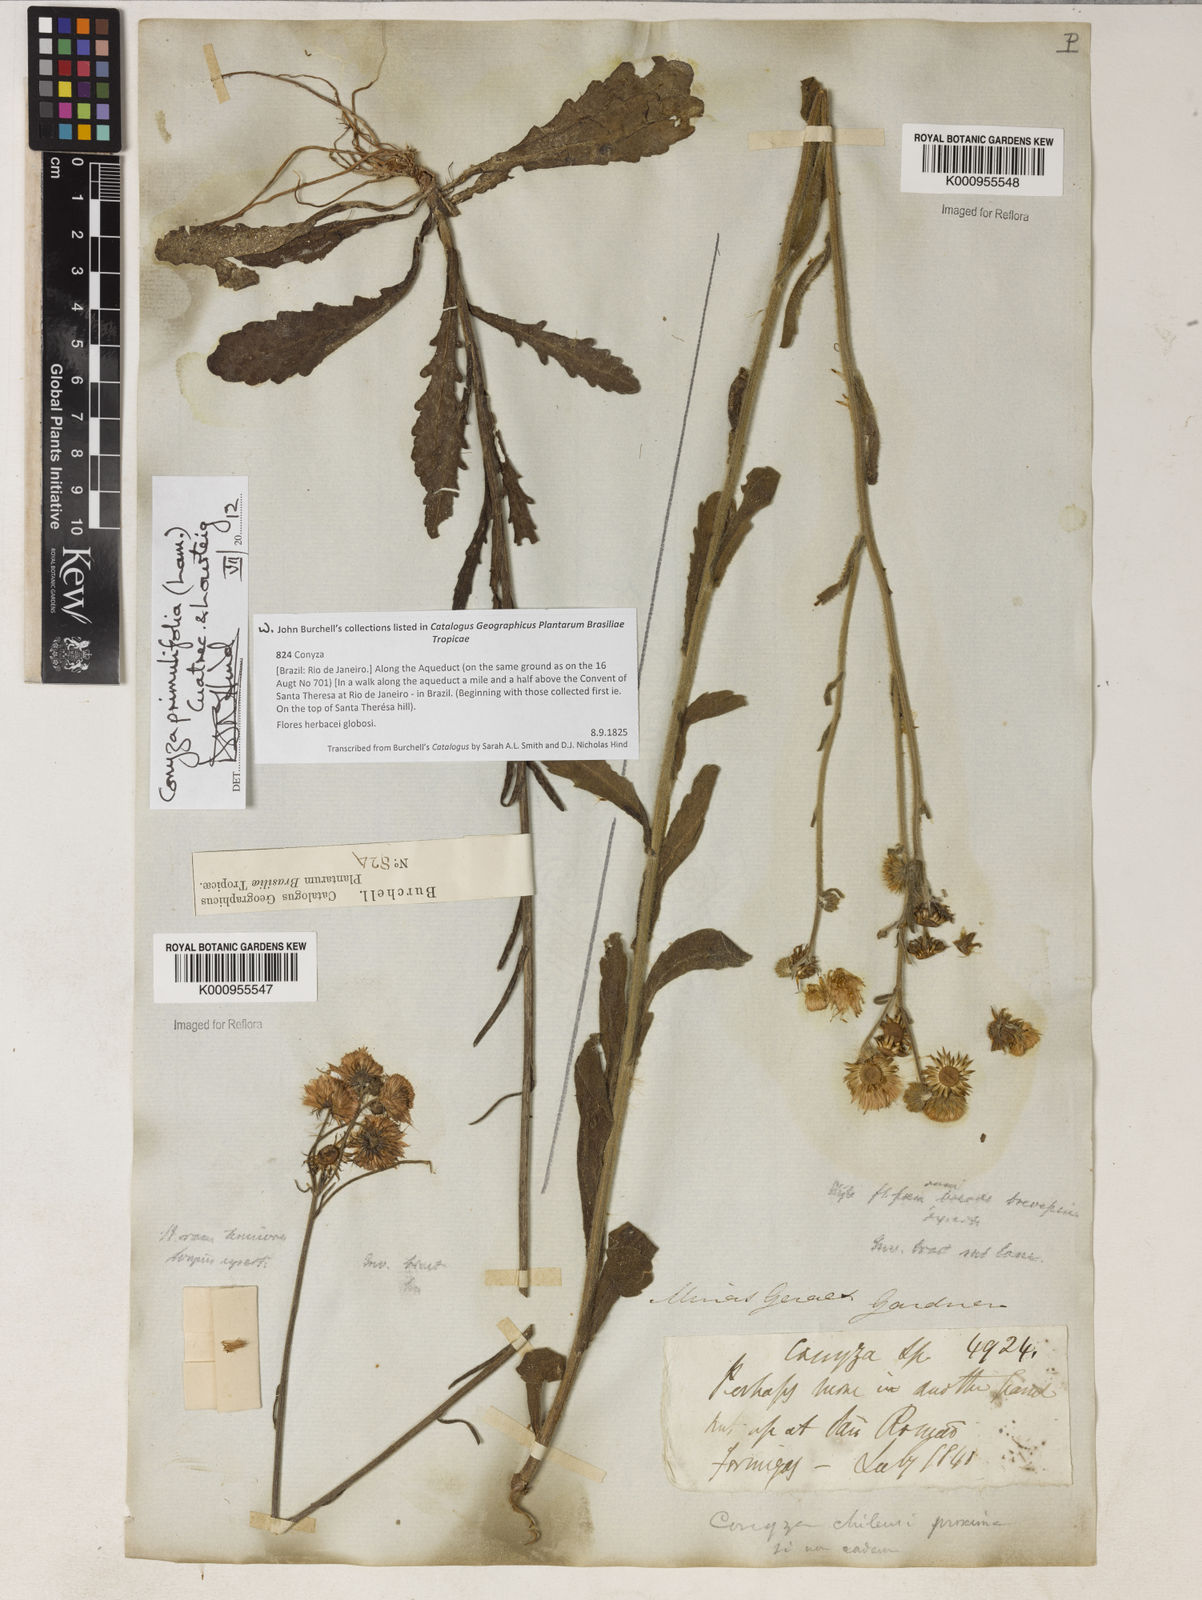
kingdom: Plantae
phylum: Tracheophyta
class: Magnoliopsida
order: Asterales
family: Asteraceae
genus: Erigeron
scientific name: Erigeron primulifolius
